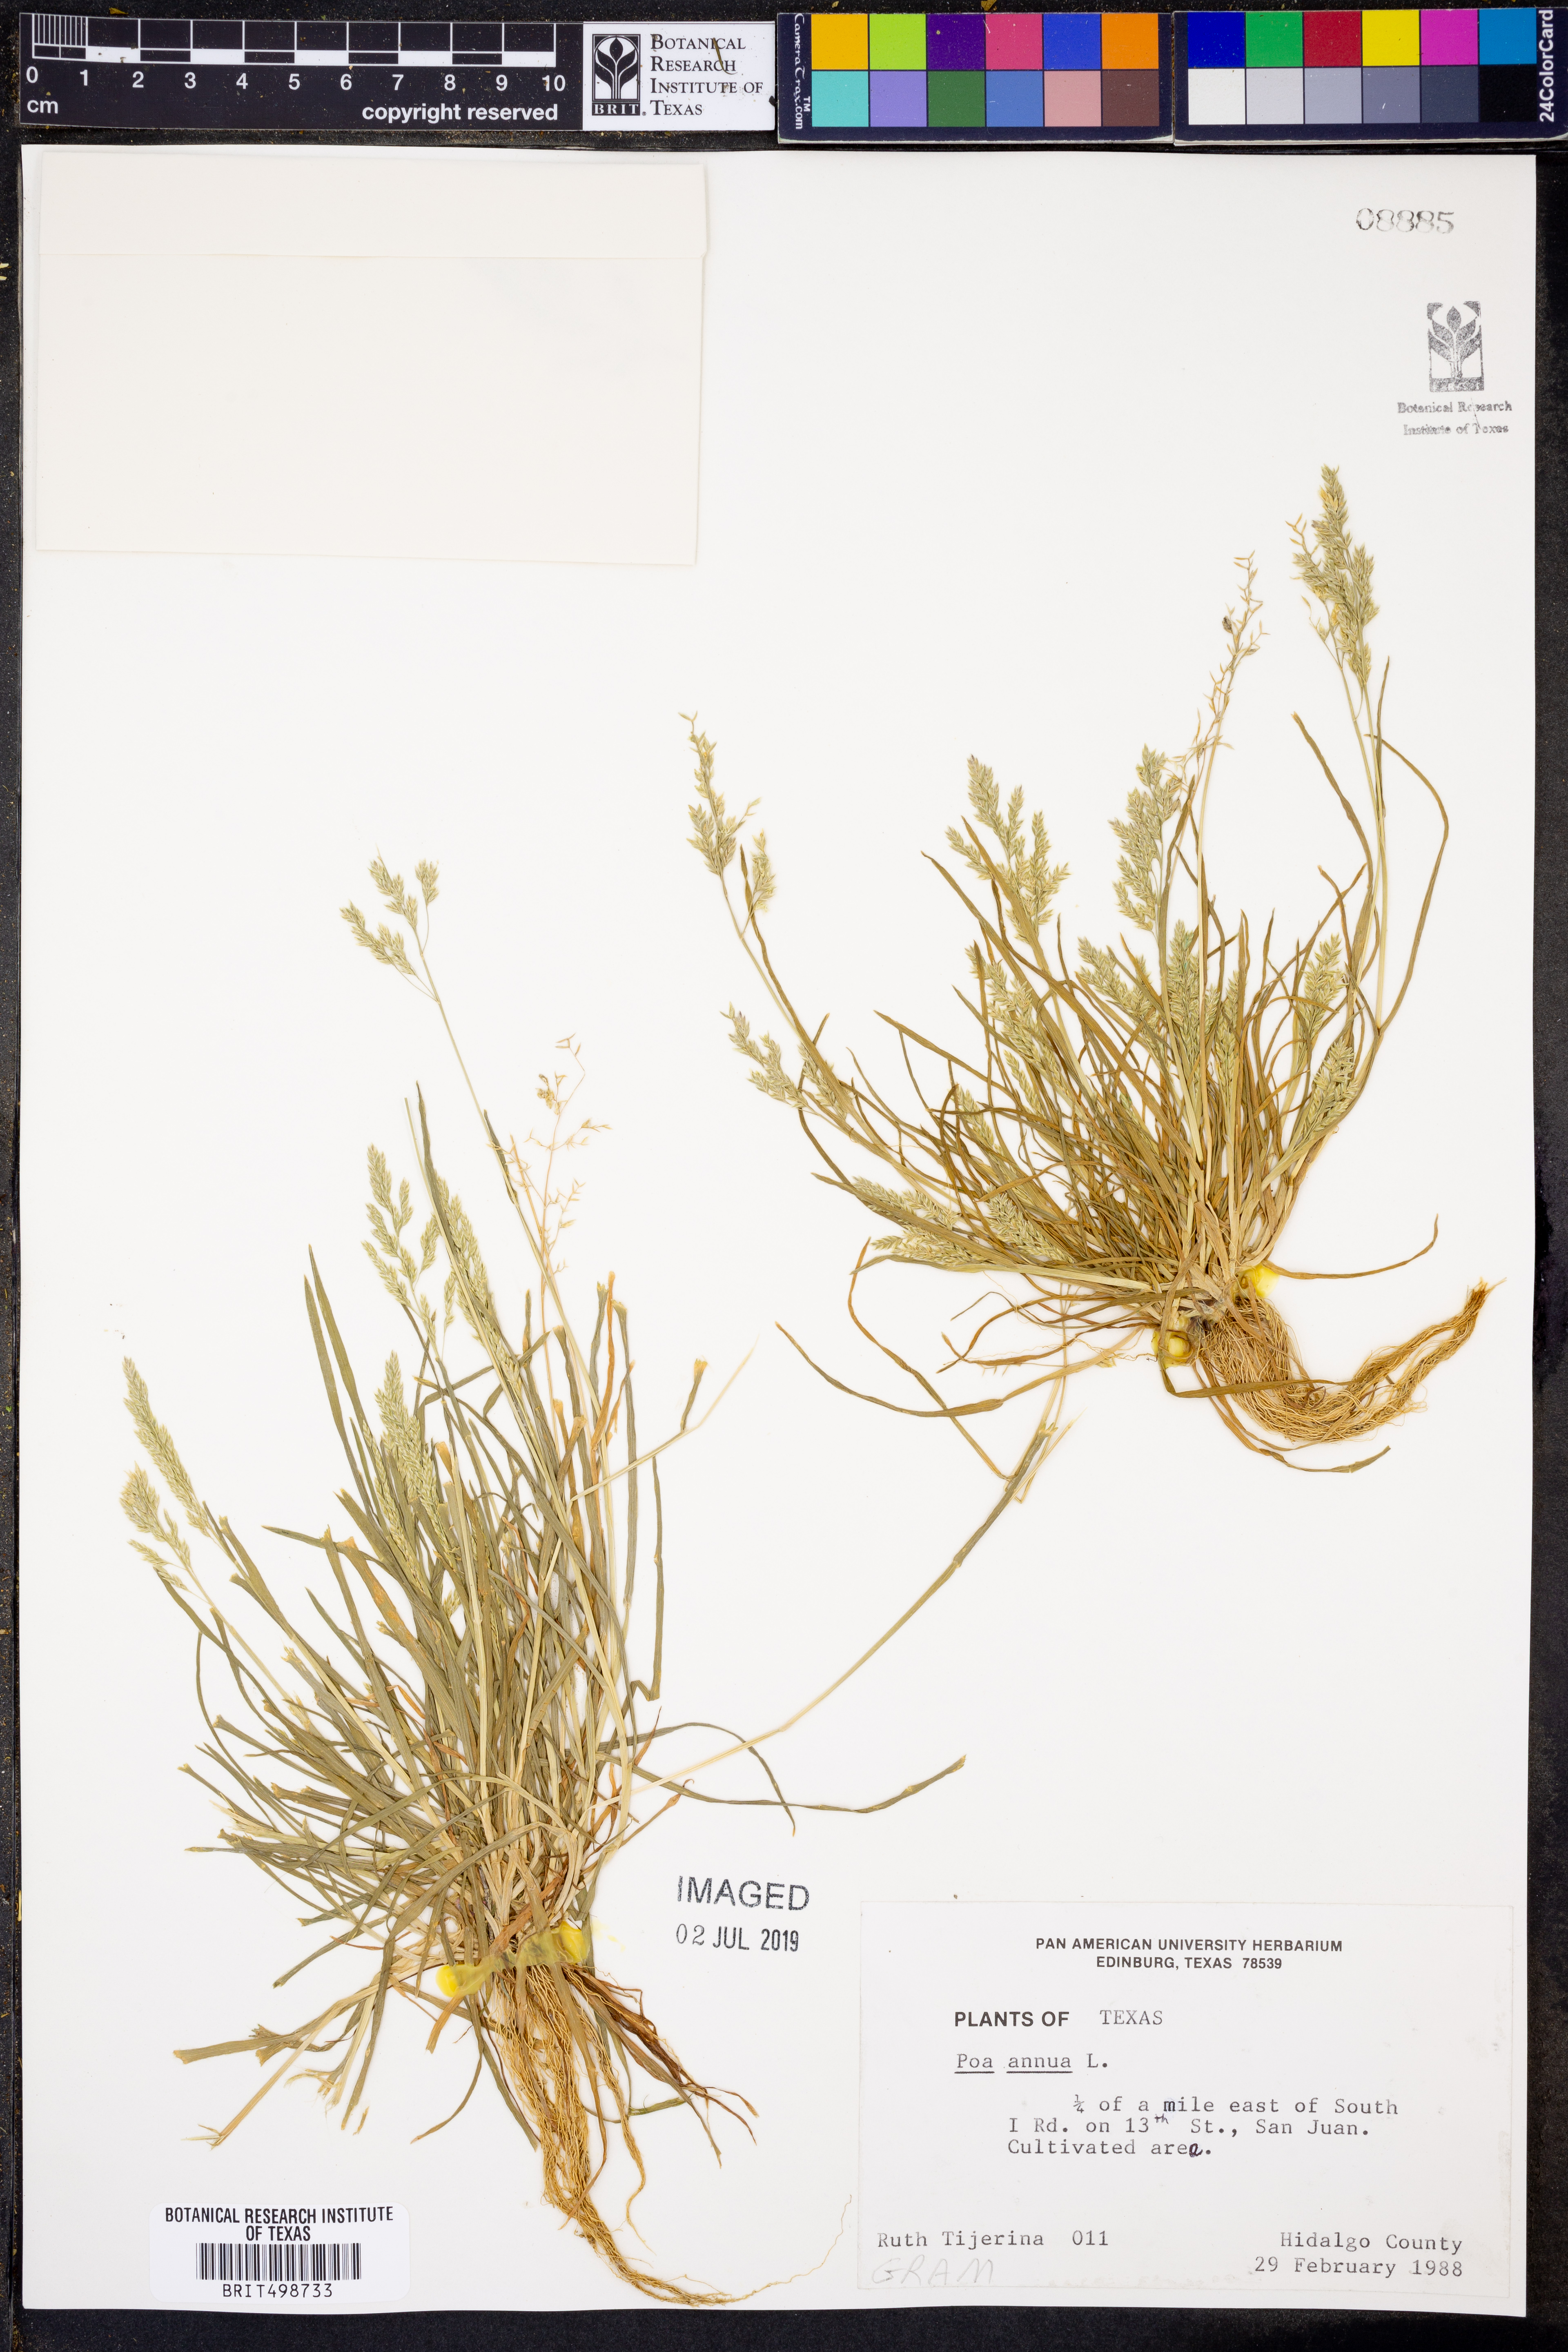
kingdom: Plantae
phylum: Tracheophyta
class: Liliopsida
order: Poales
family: Poaceae
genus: Poa
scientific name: Poa annua
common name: Annual bluegrass
